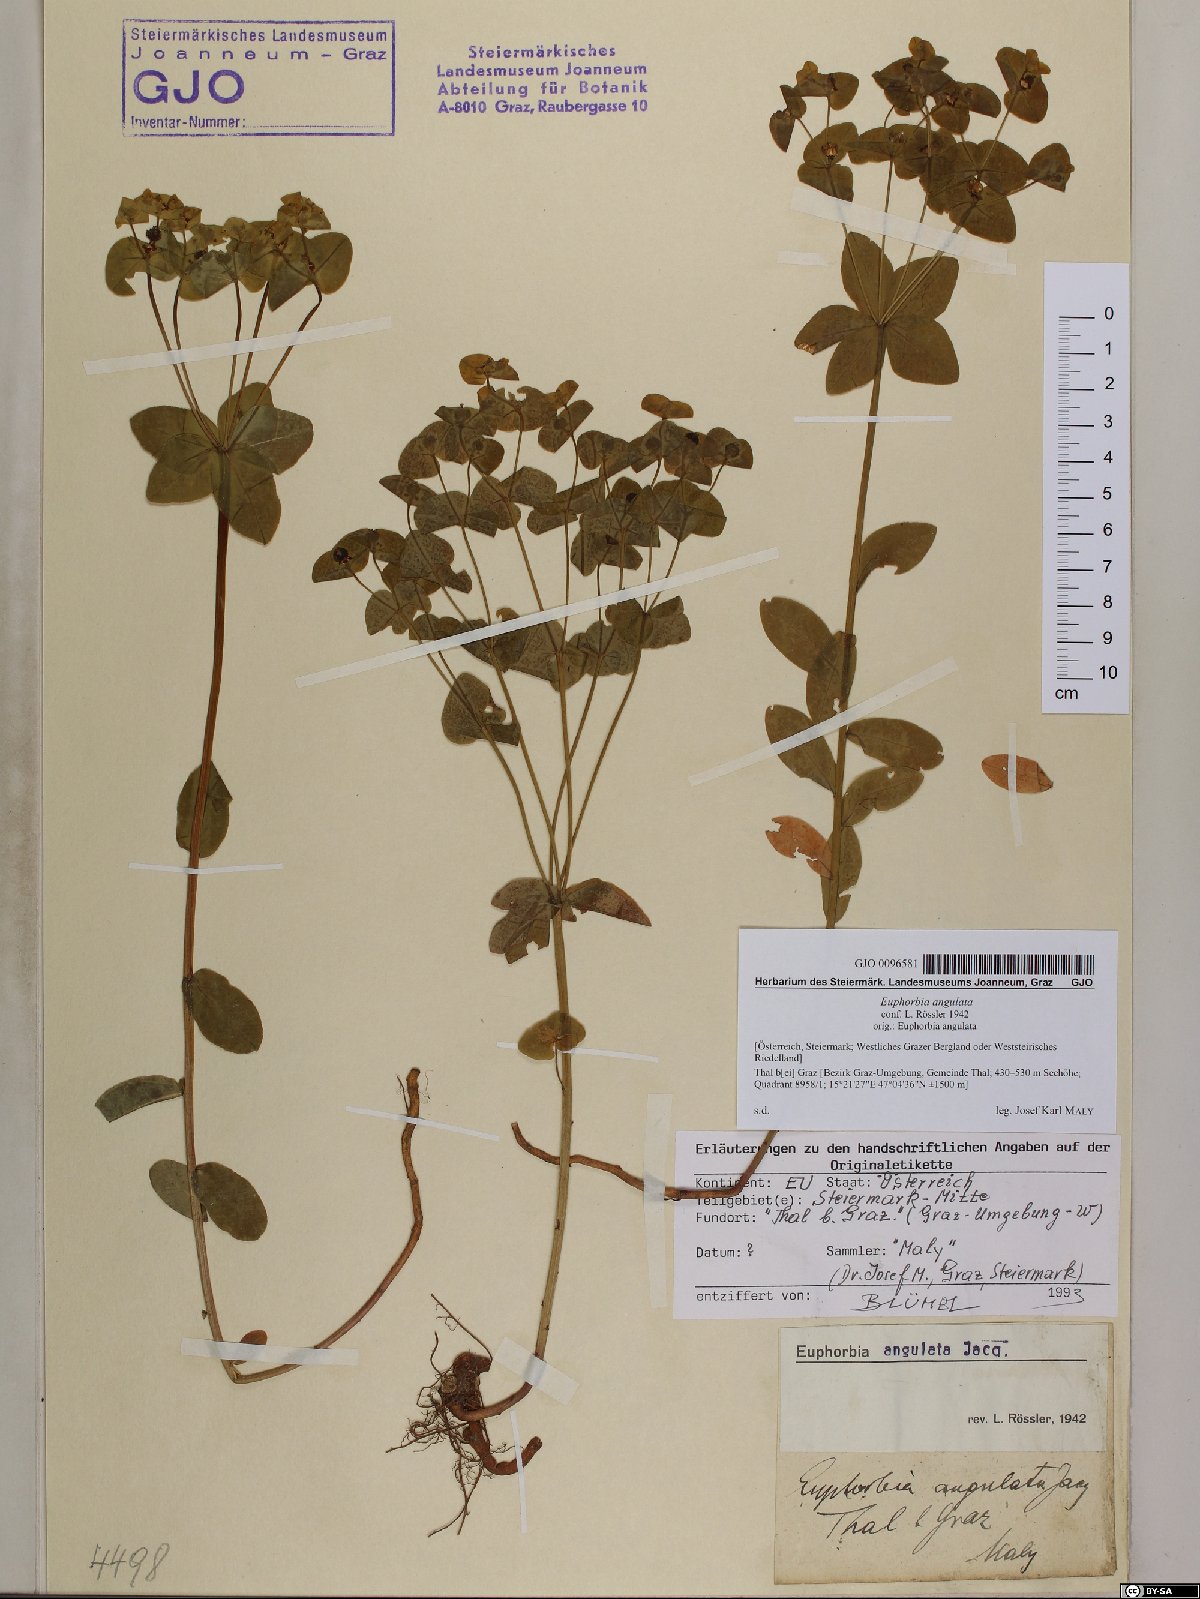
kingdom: Plantae
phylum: Tracheophyta
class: Magnoliopsida
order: Malpighiales
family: Euphorbiaceae
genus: Euphorbia
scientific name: Euphorbia angulata
